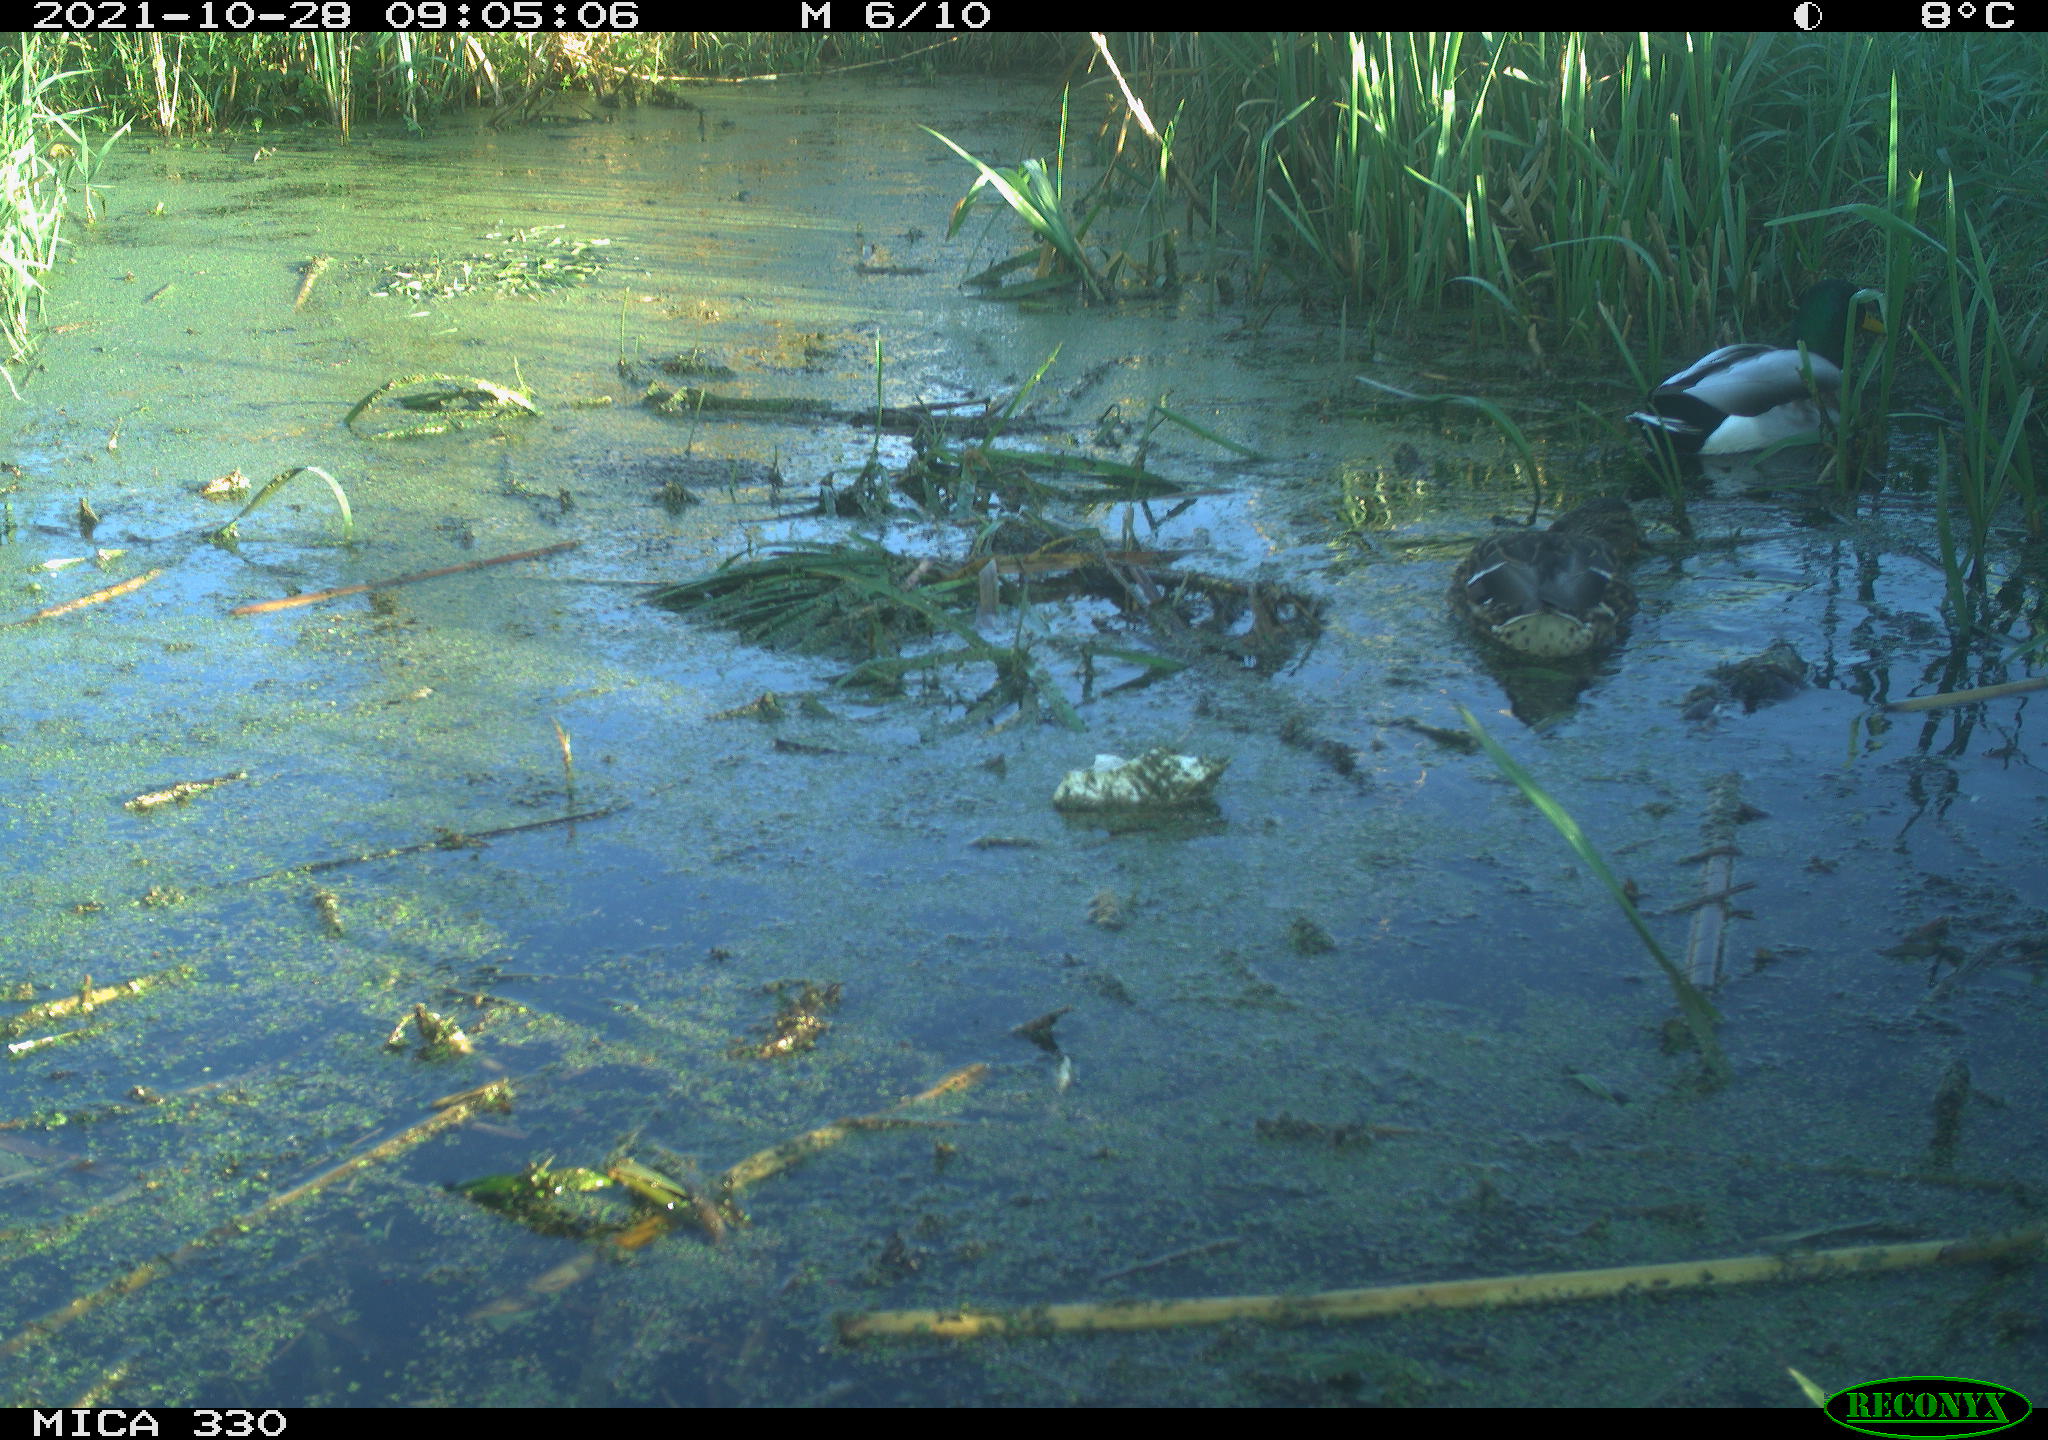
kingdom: Animalia
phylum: Chordata
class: Aves
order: Anseriformes
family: Anatidae
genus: Anas
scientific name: Anas platyrhynchos
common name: Mallard
